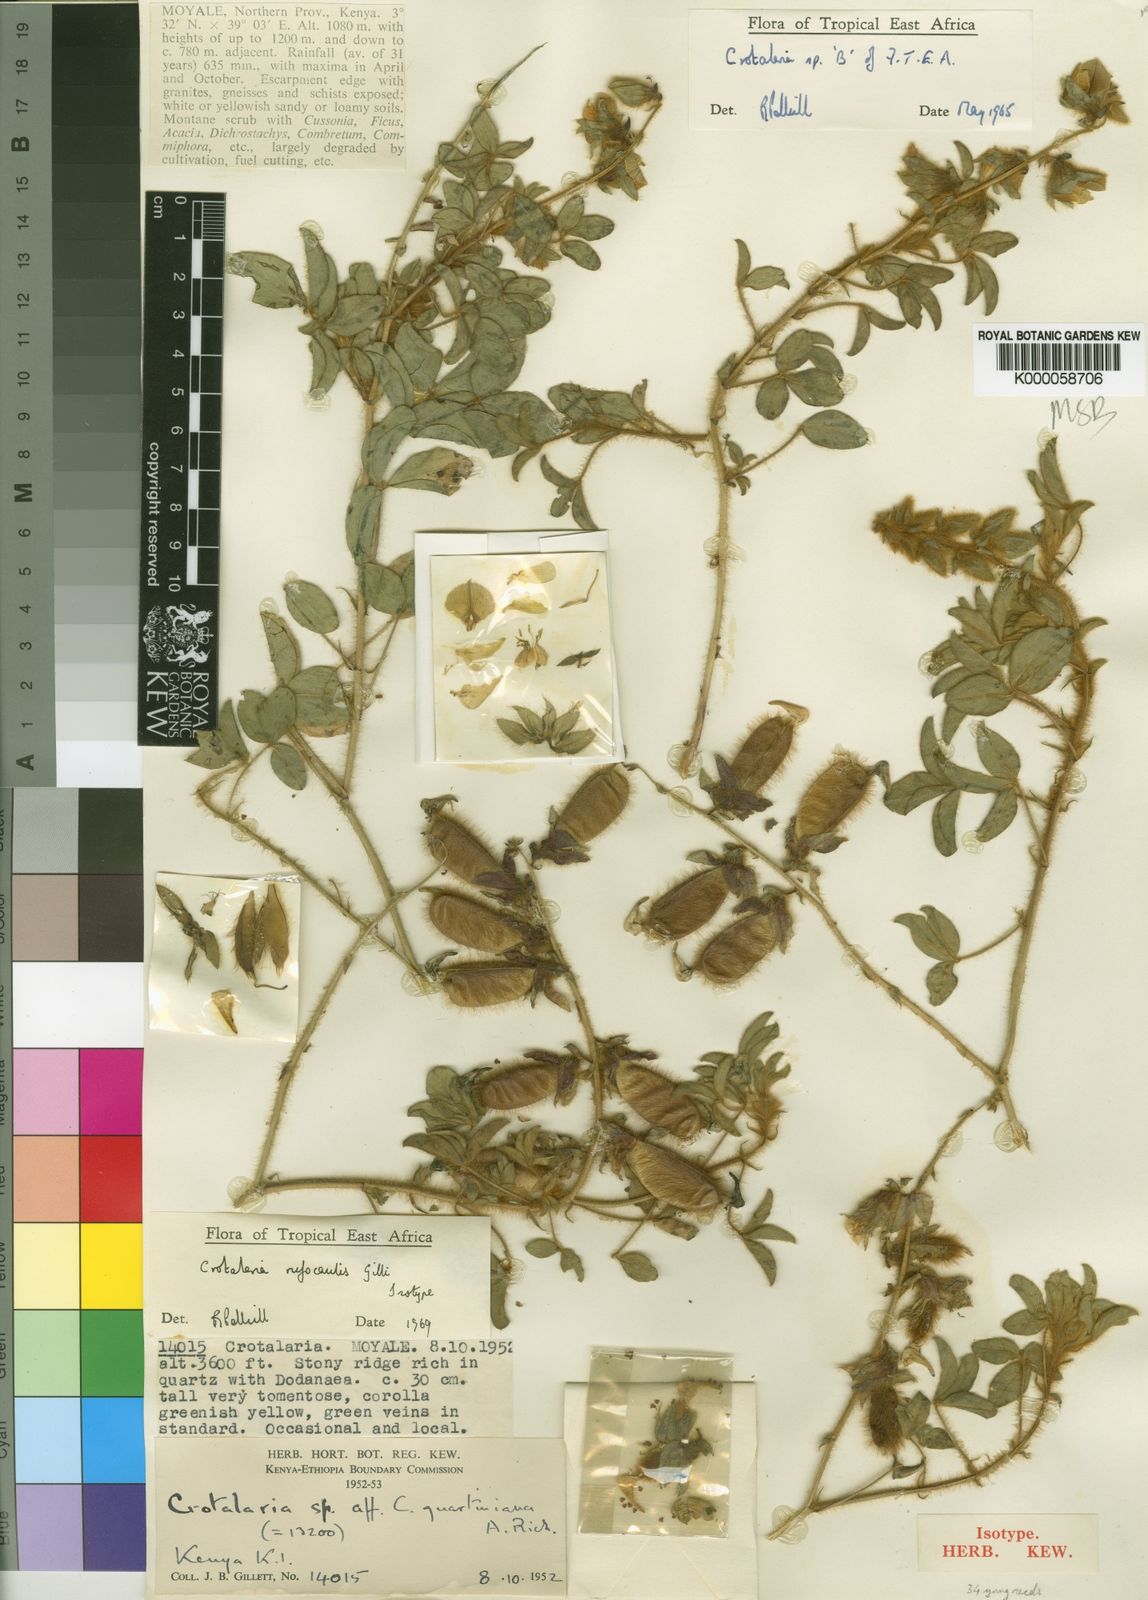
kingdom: Plantae
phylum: Tracheophyta
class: Magnoliopsida
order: Fabales
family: Fabaceae
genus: Crotalaria
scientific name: Crotalaria rufocaulis
